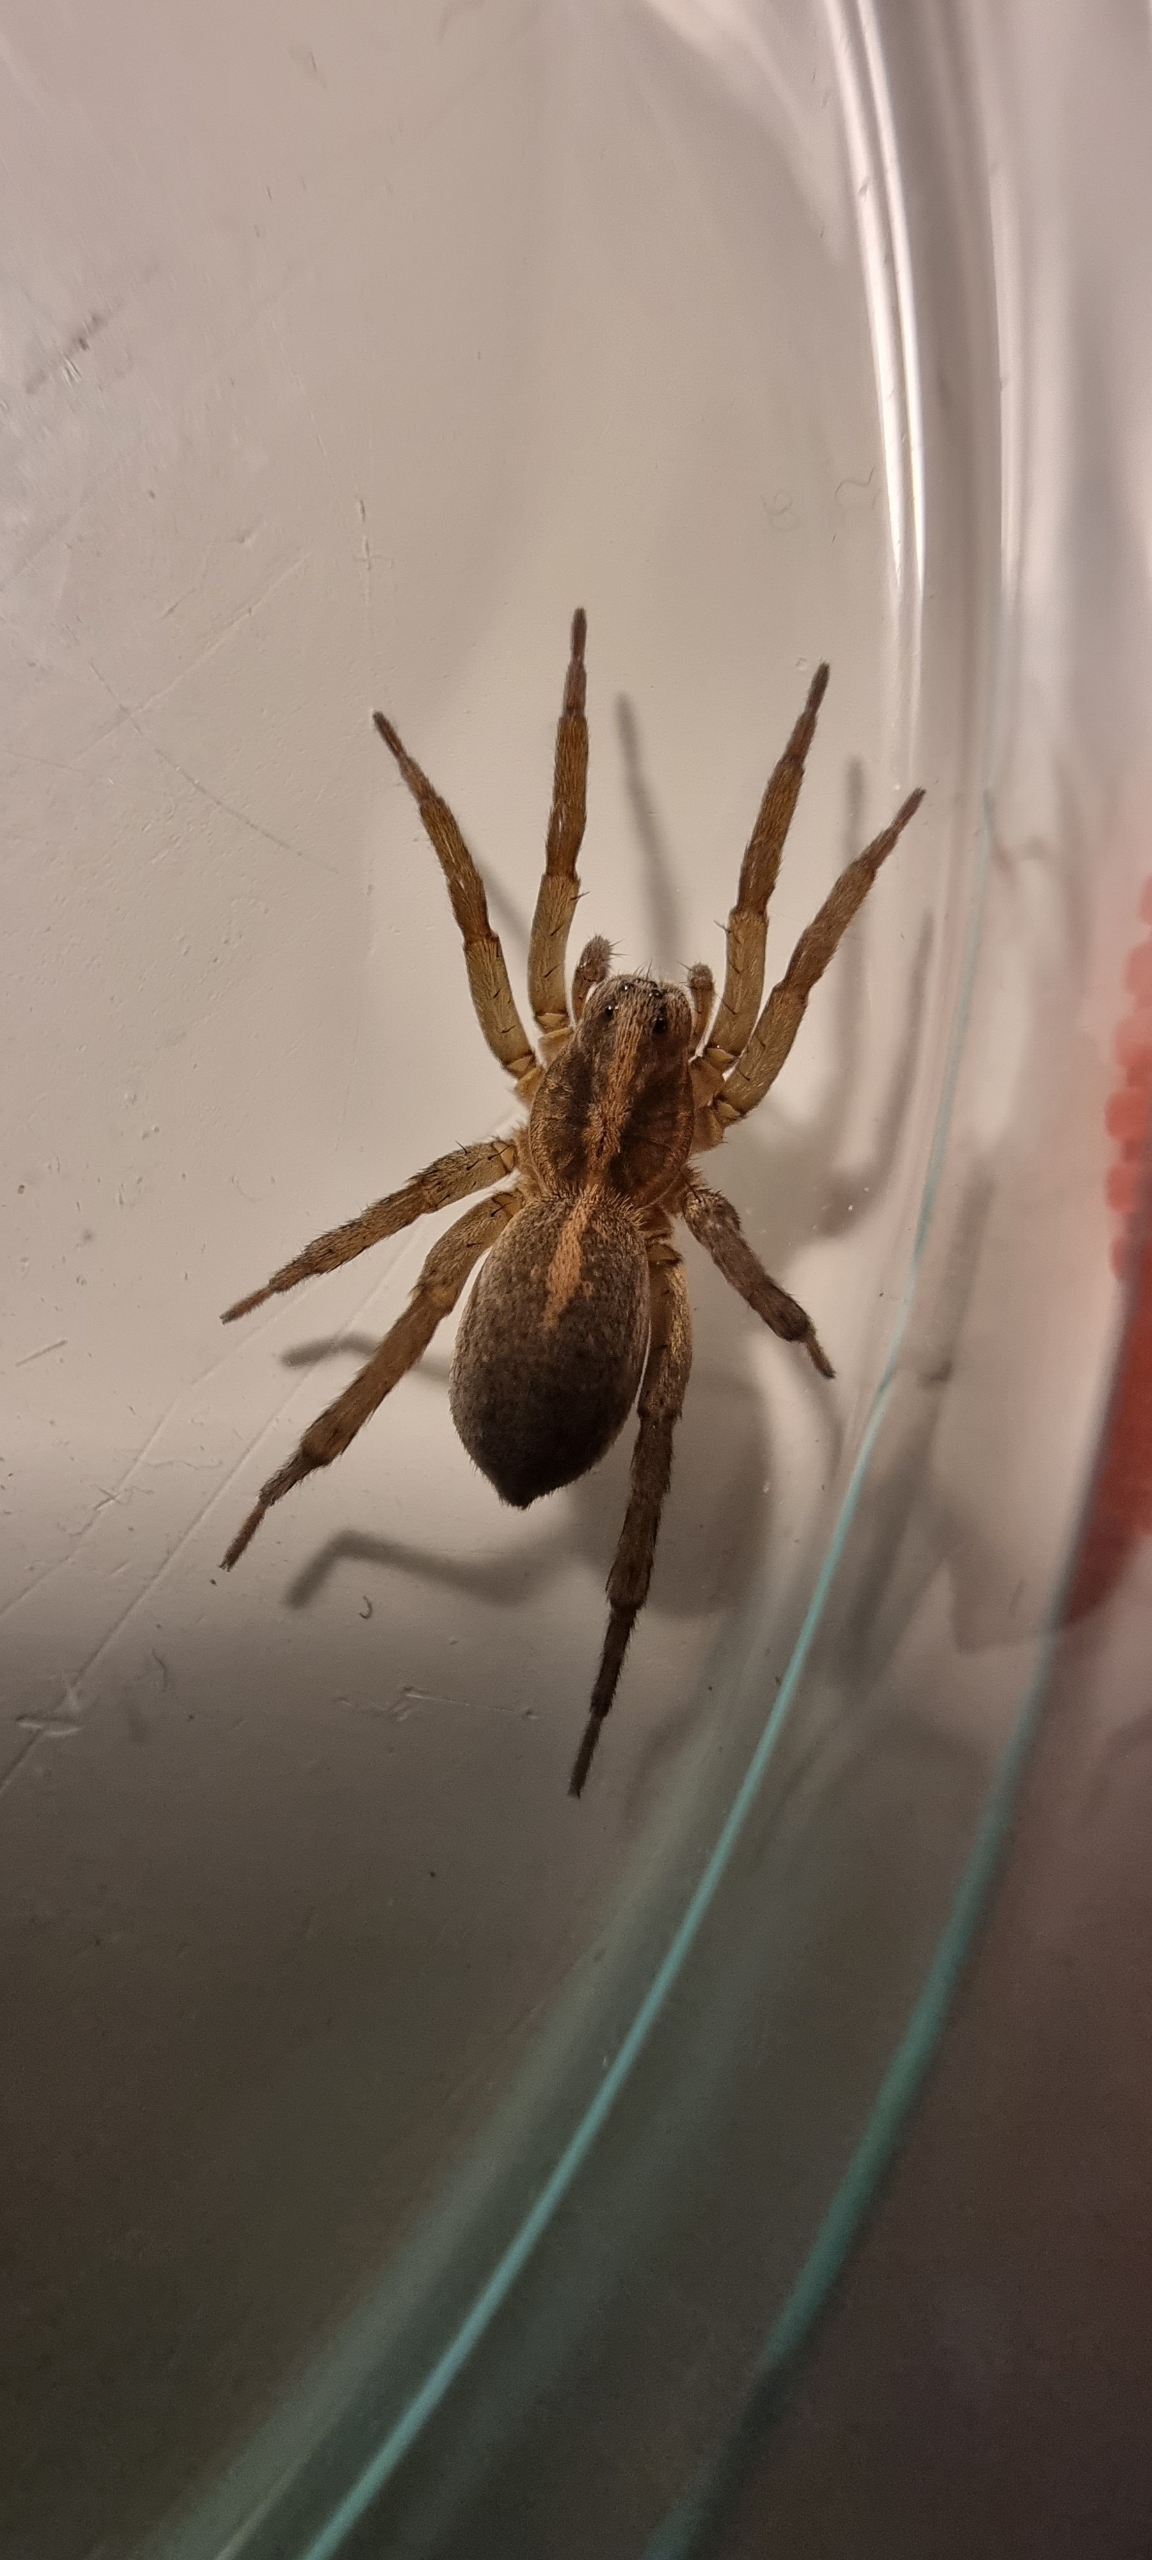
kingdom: Animalia
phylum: Arthropoda
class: Arachnida
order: Araneae
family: Lycosidae
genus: Trochosa
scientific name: Trochosa ruricola
